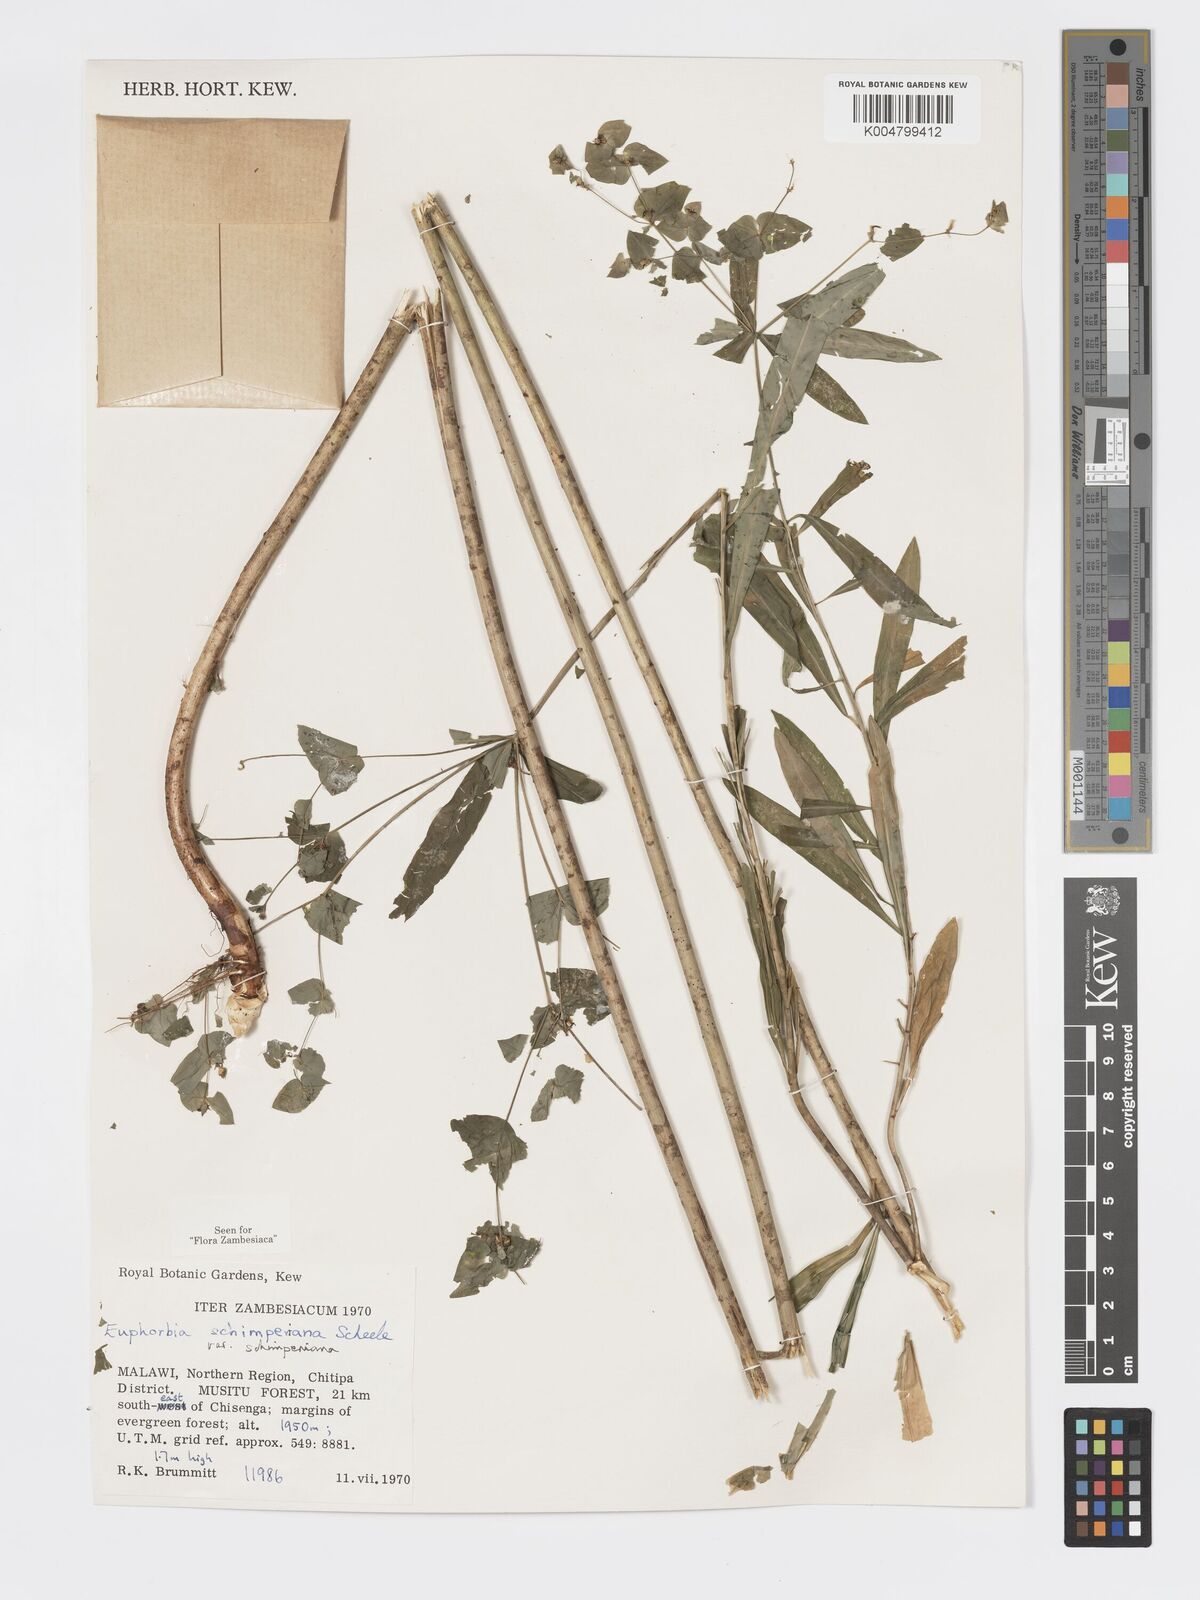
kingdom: Plantae
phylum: Tracheophyta
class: Magnoliopsida
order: Malpighiales
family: Euphorbiaceae
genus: Euphorbia
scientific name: Euphorbia schimperiana
